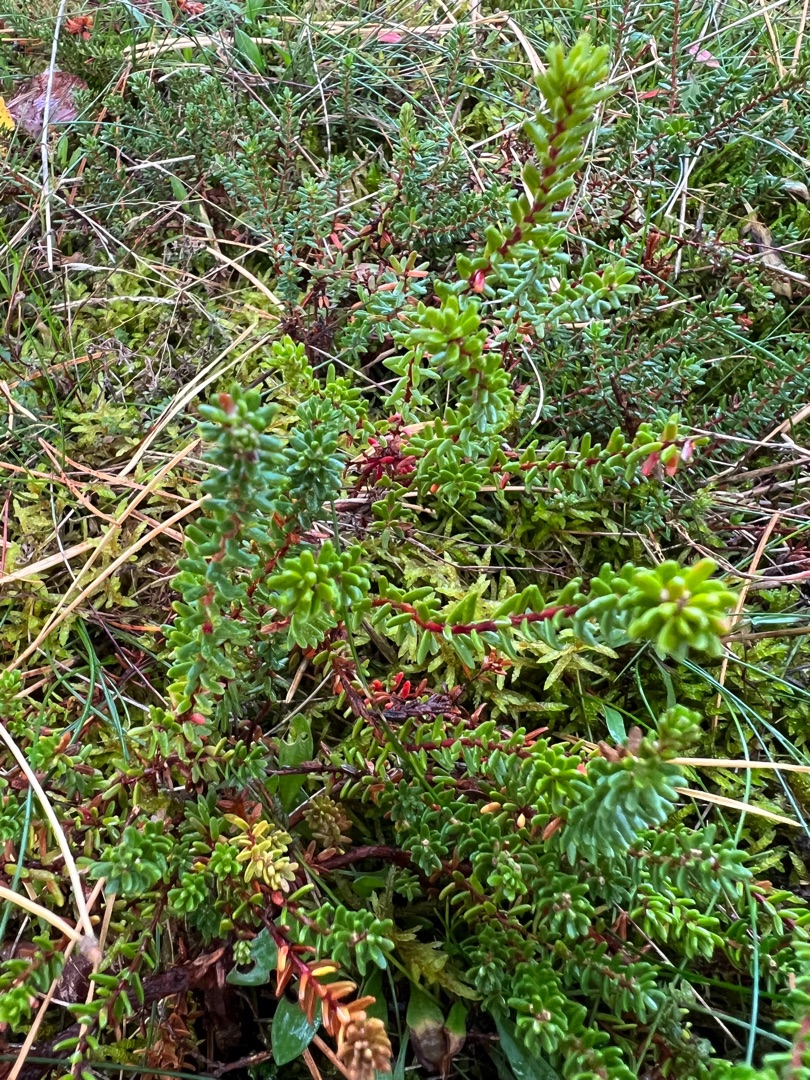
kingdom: Plantae
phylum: Tracheophyta
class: Magnoliopsida
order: Ericales
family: Ericaceae
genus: Empetrum
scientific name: Empetrum nigrum
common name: Revling
